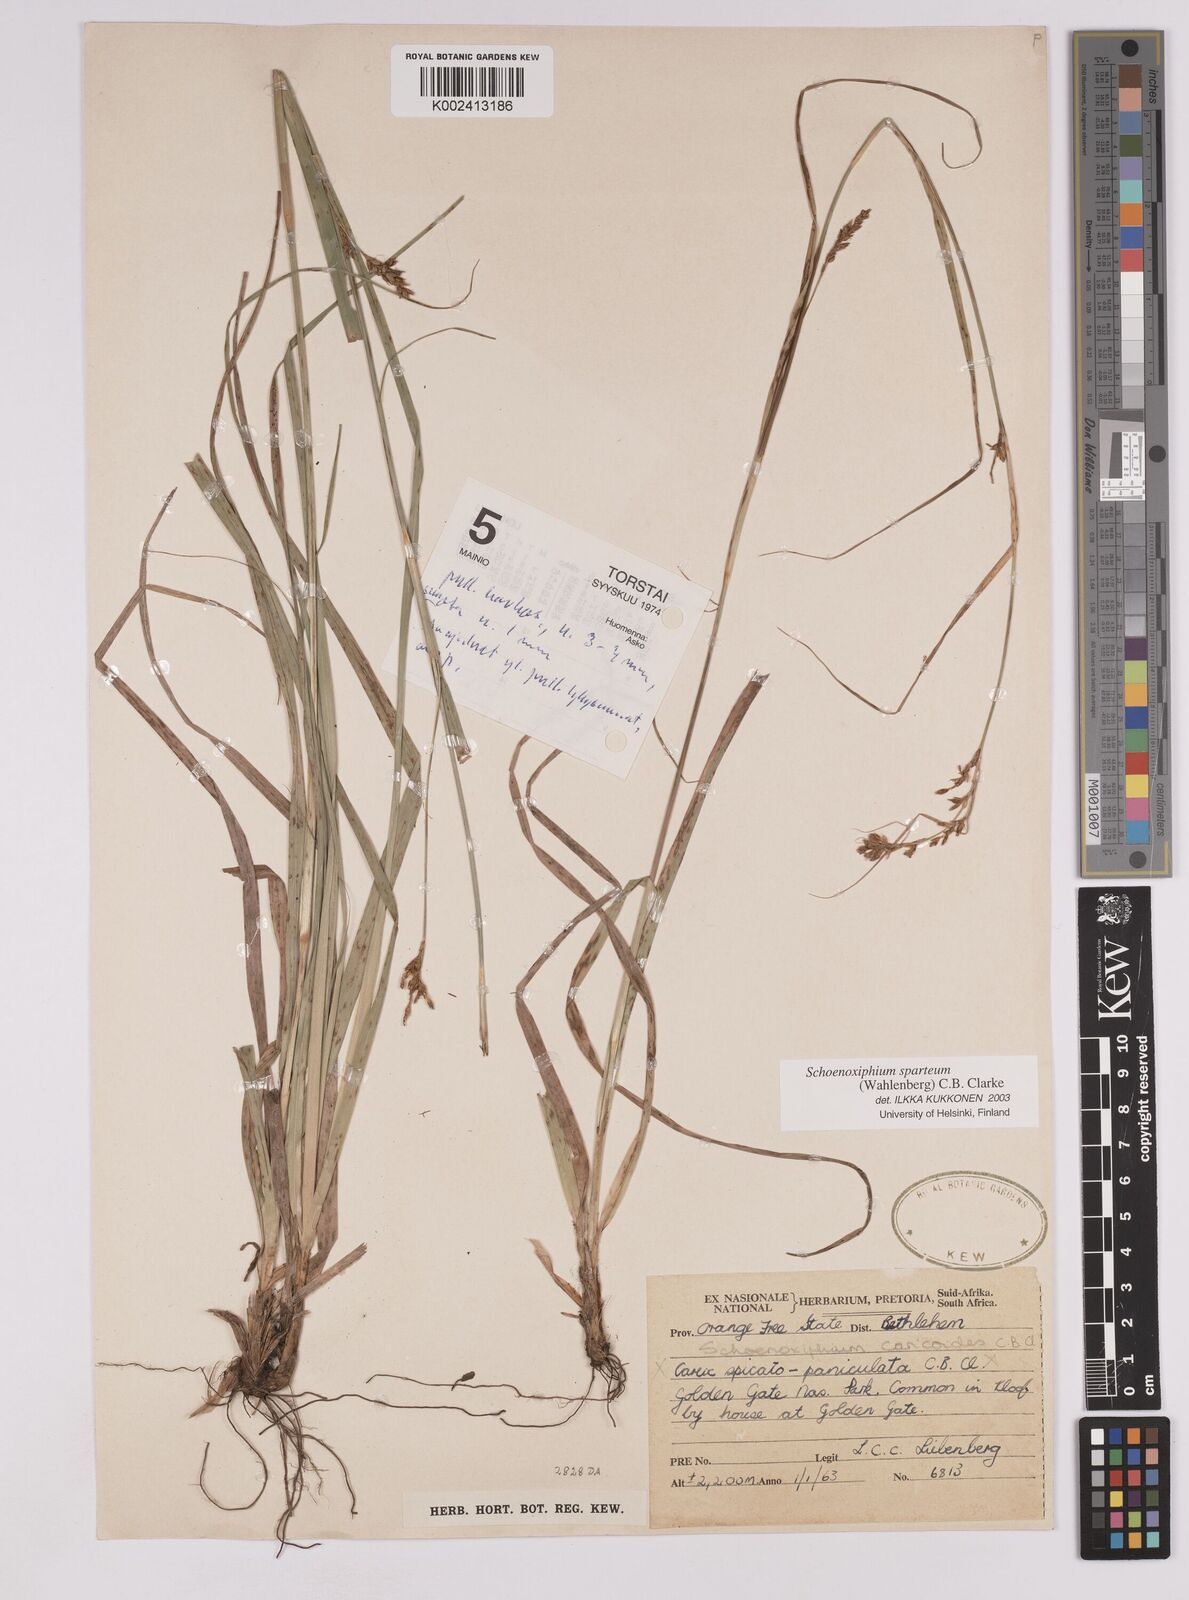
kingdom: Plantae
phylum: Tracheophyta
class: Liliopsida
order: Poales
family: Cyperaceae
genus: Carex
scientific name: Carex spartea
